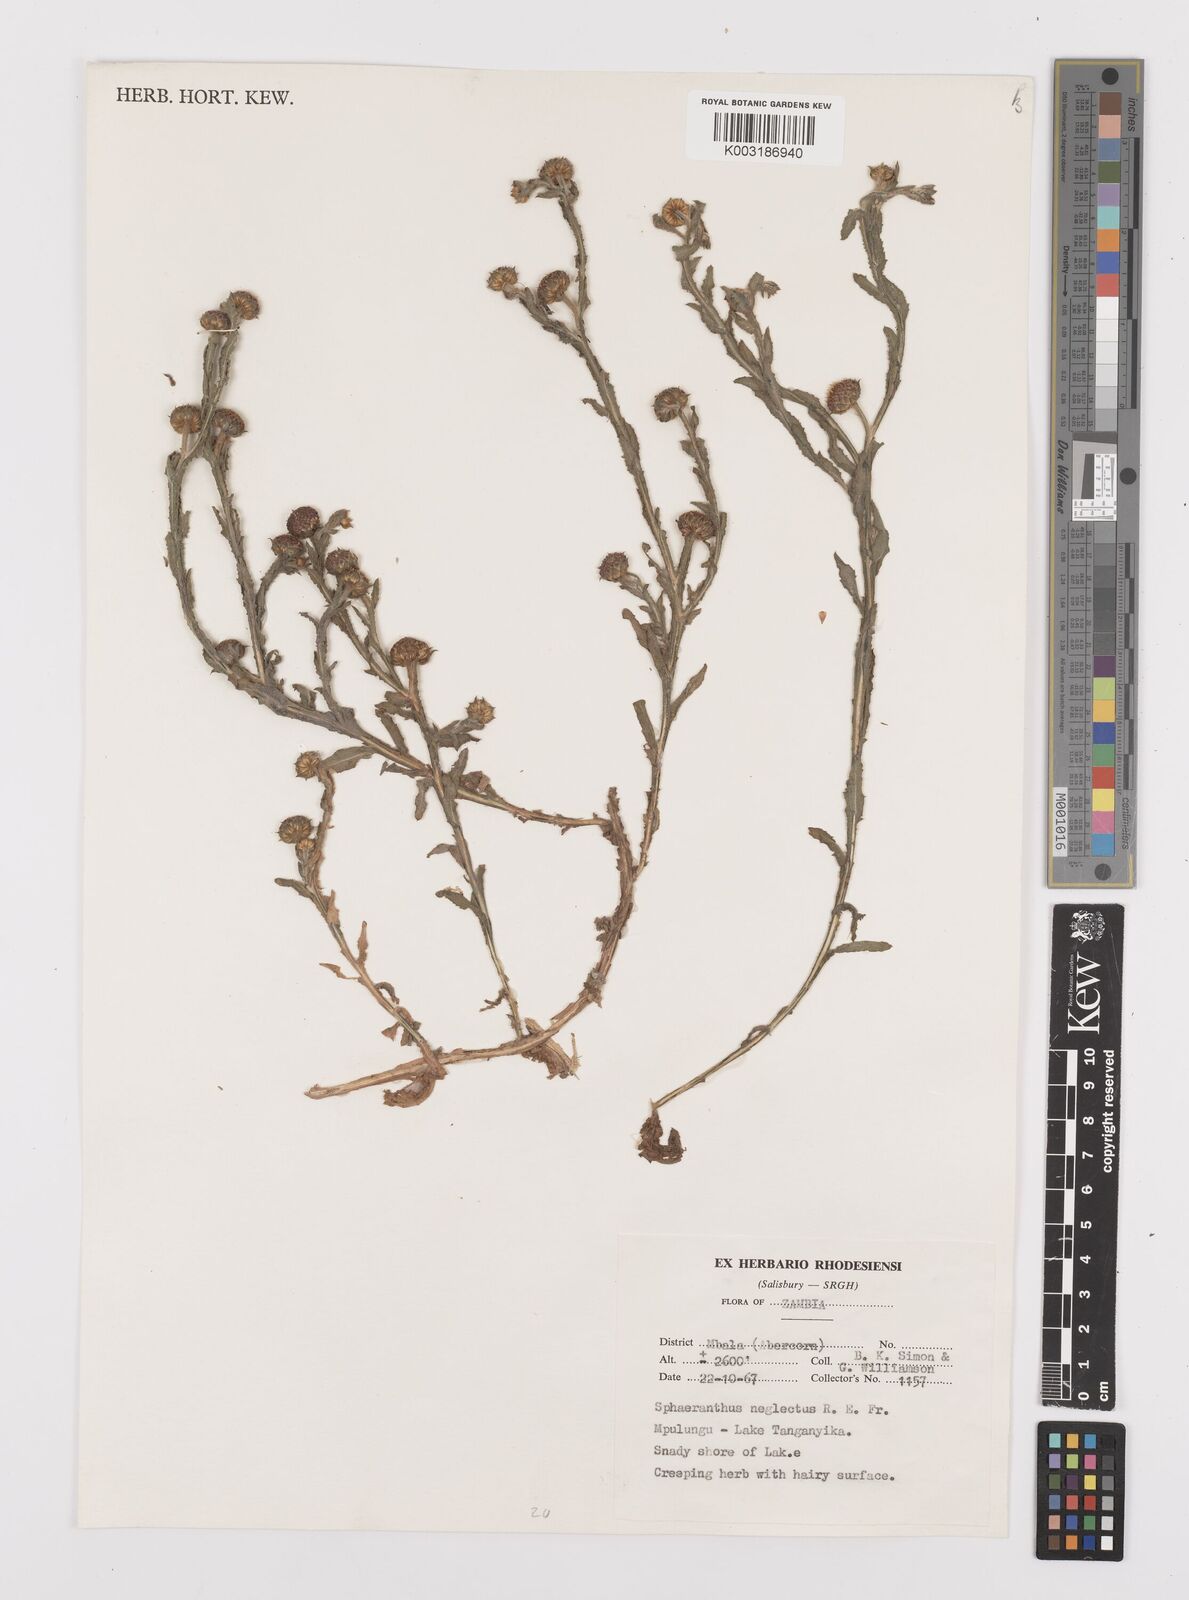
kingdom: Plantae
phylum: Tracheophyta
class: Magnoliopsida
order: Asterales
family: Asteraceae
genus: Sphaeranthus
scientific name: Sphaeranthus neglectus
